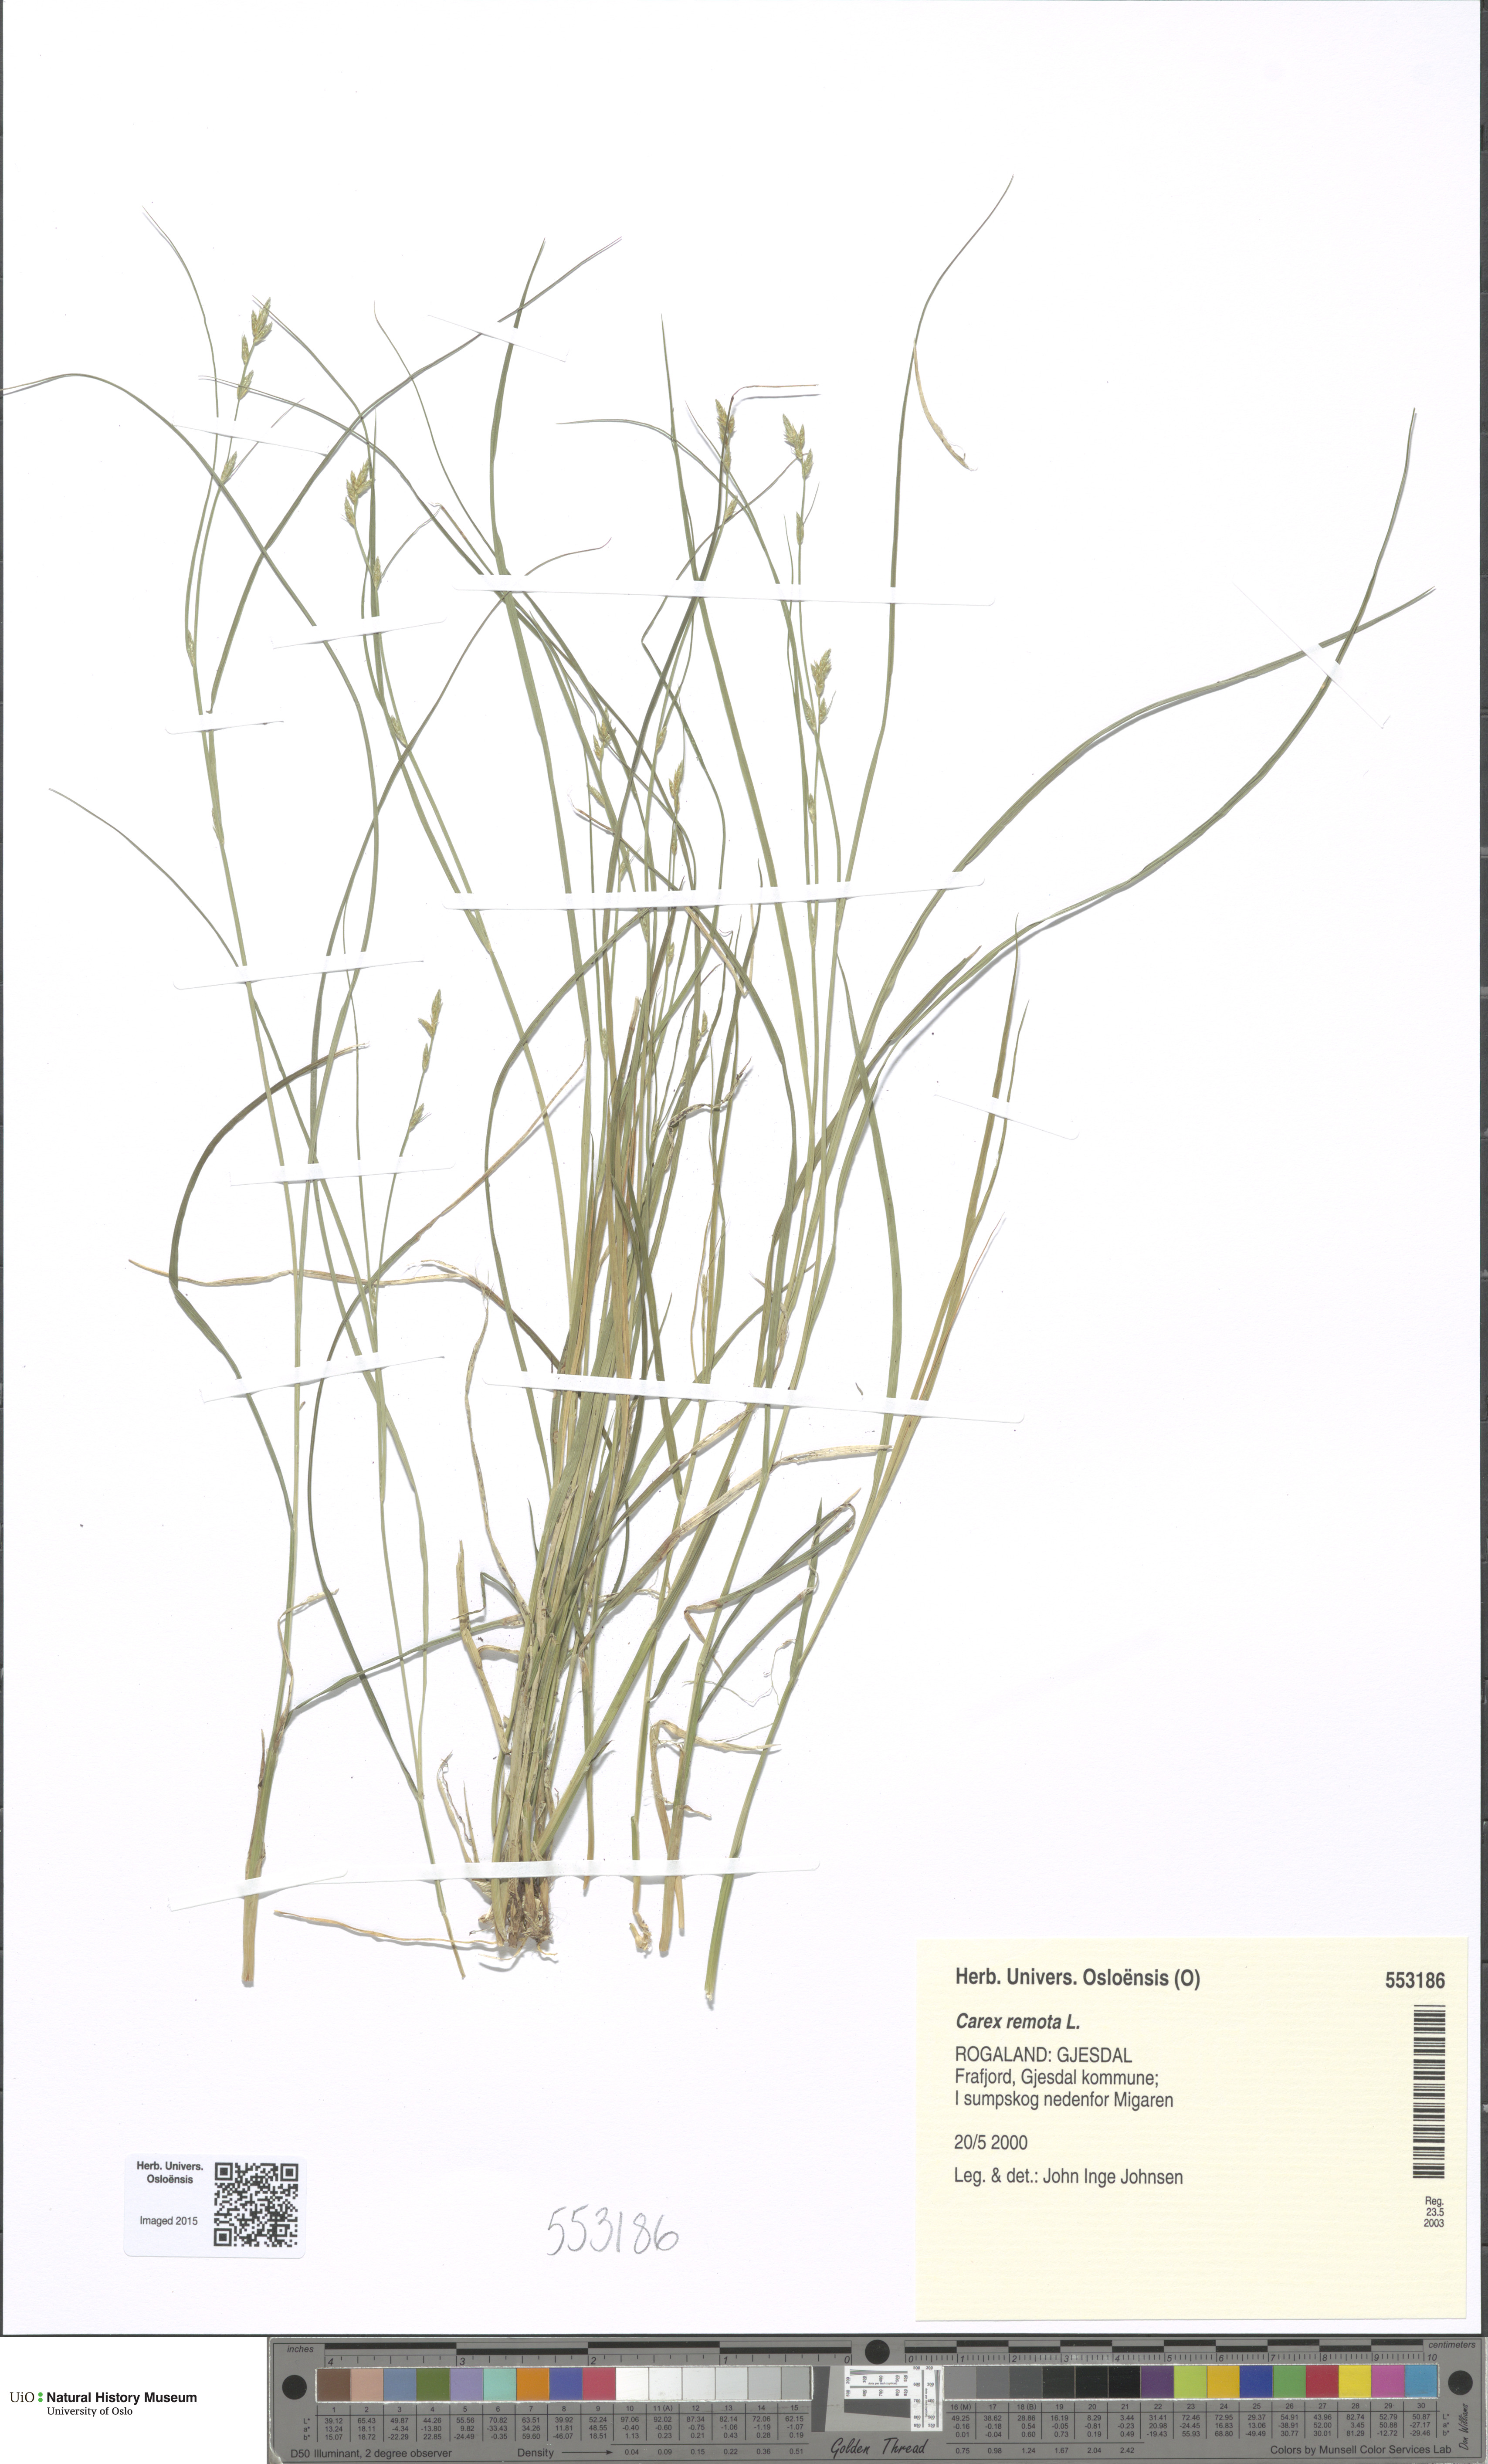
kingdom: Plantae
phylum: Tracheophyta
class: Liliopsida
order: Poales
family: Cyperaceae
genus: Carex
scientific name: Carex remota
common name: Remote sedge
